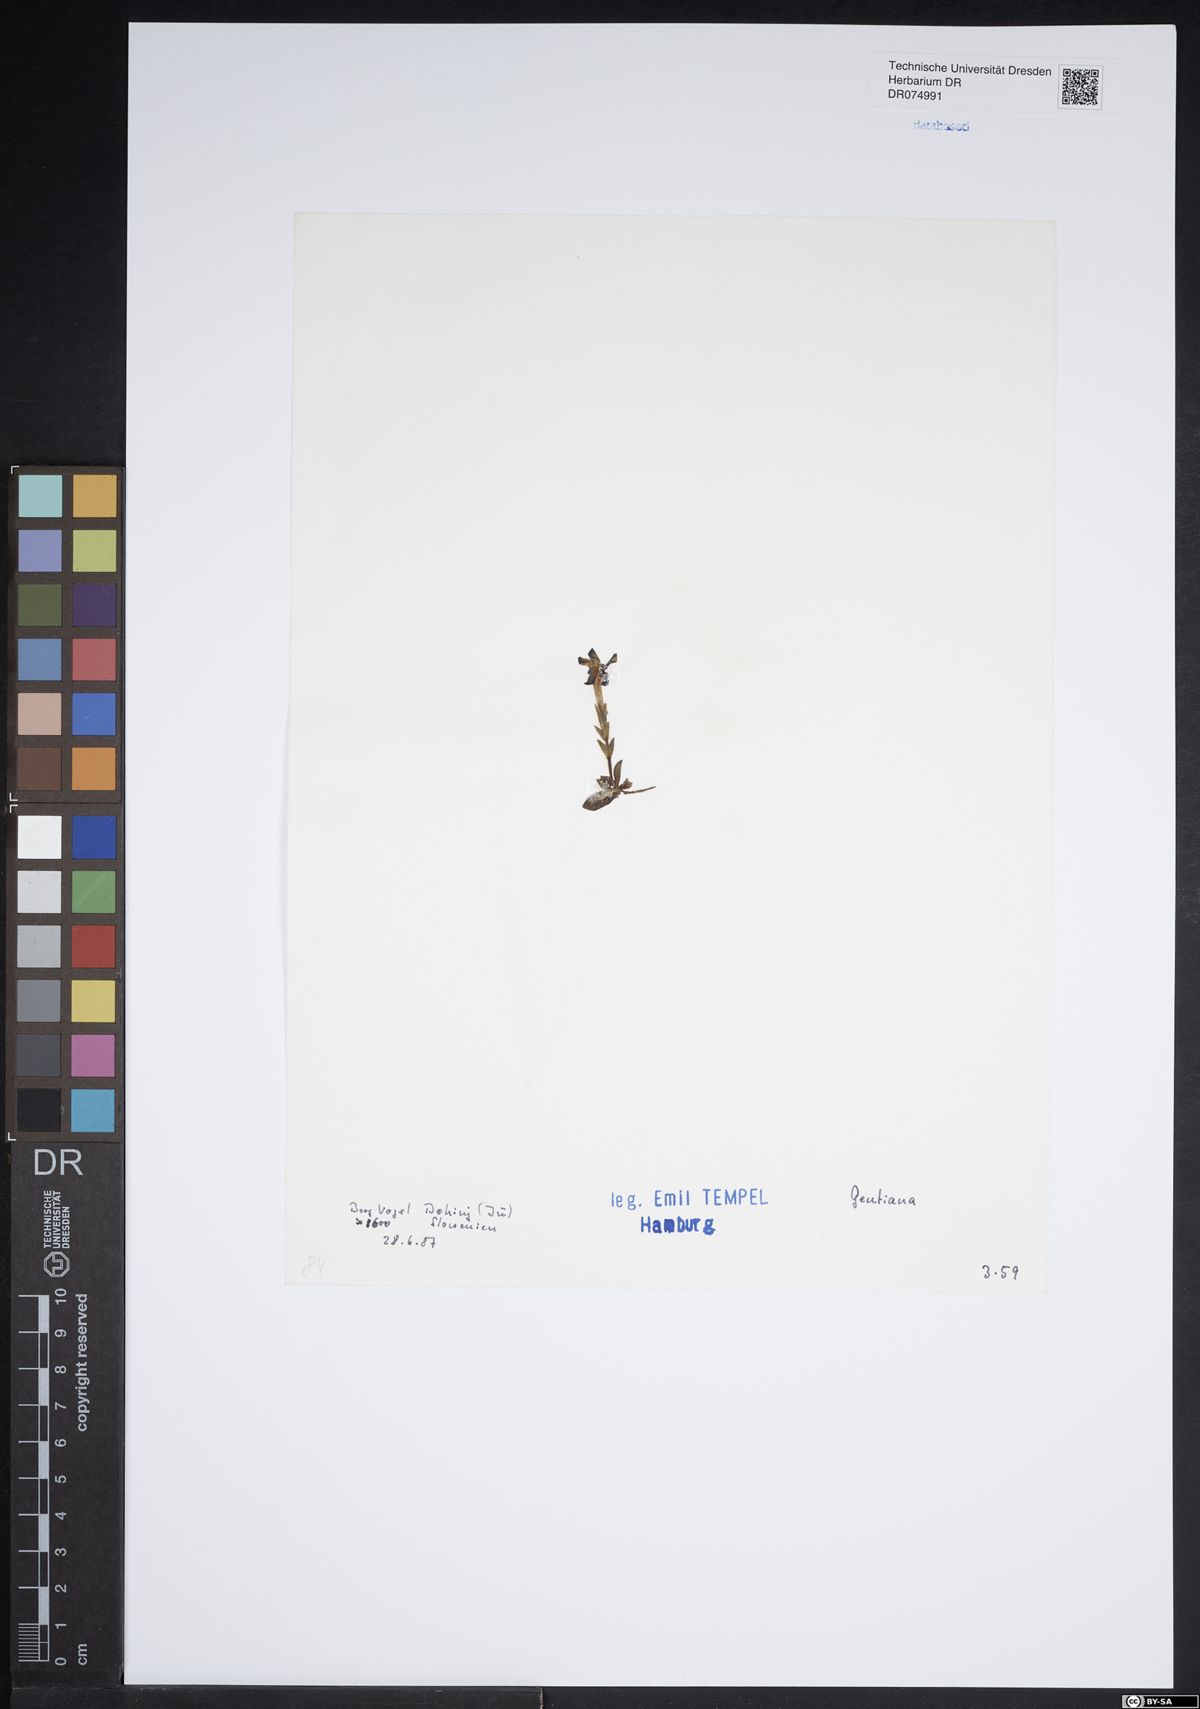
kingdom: Plantae
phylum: Tracheophyta
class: Magnoliopsida
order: Gentianales
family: Gentianaceae
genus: Gentiana
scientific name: Gentiana
